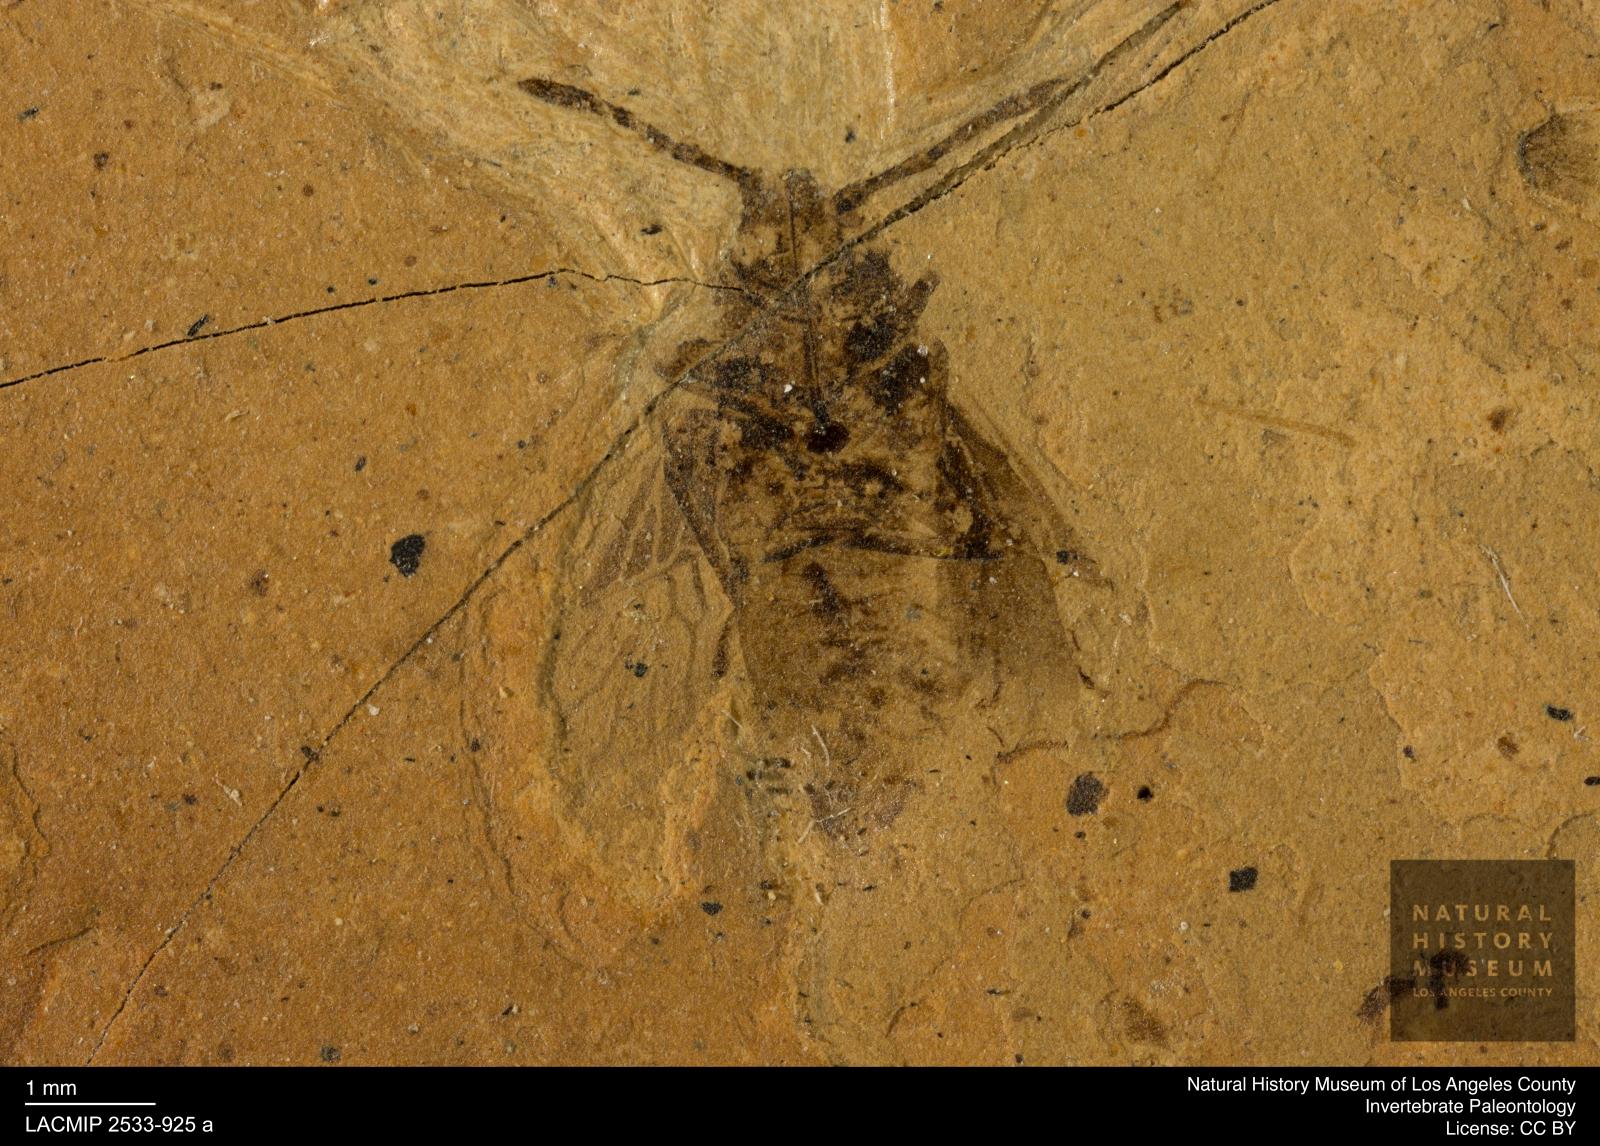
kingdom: Animalia
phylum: Arthropoda
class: Insecta
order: Hemiptera
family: Lygaeidae
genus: Lygaeosoma
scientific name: Lygaeosoma wagneri
